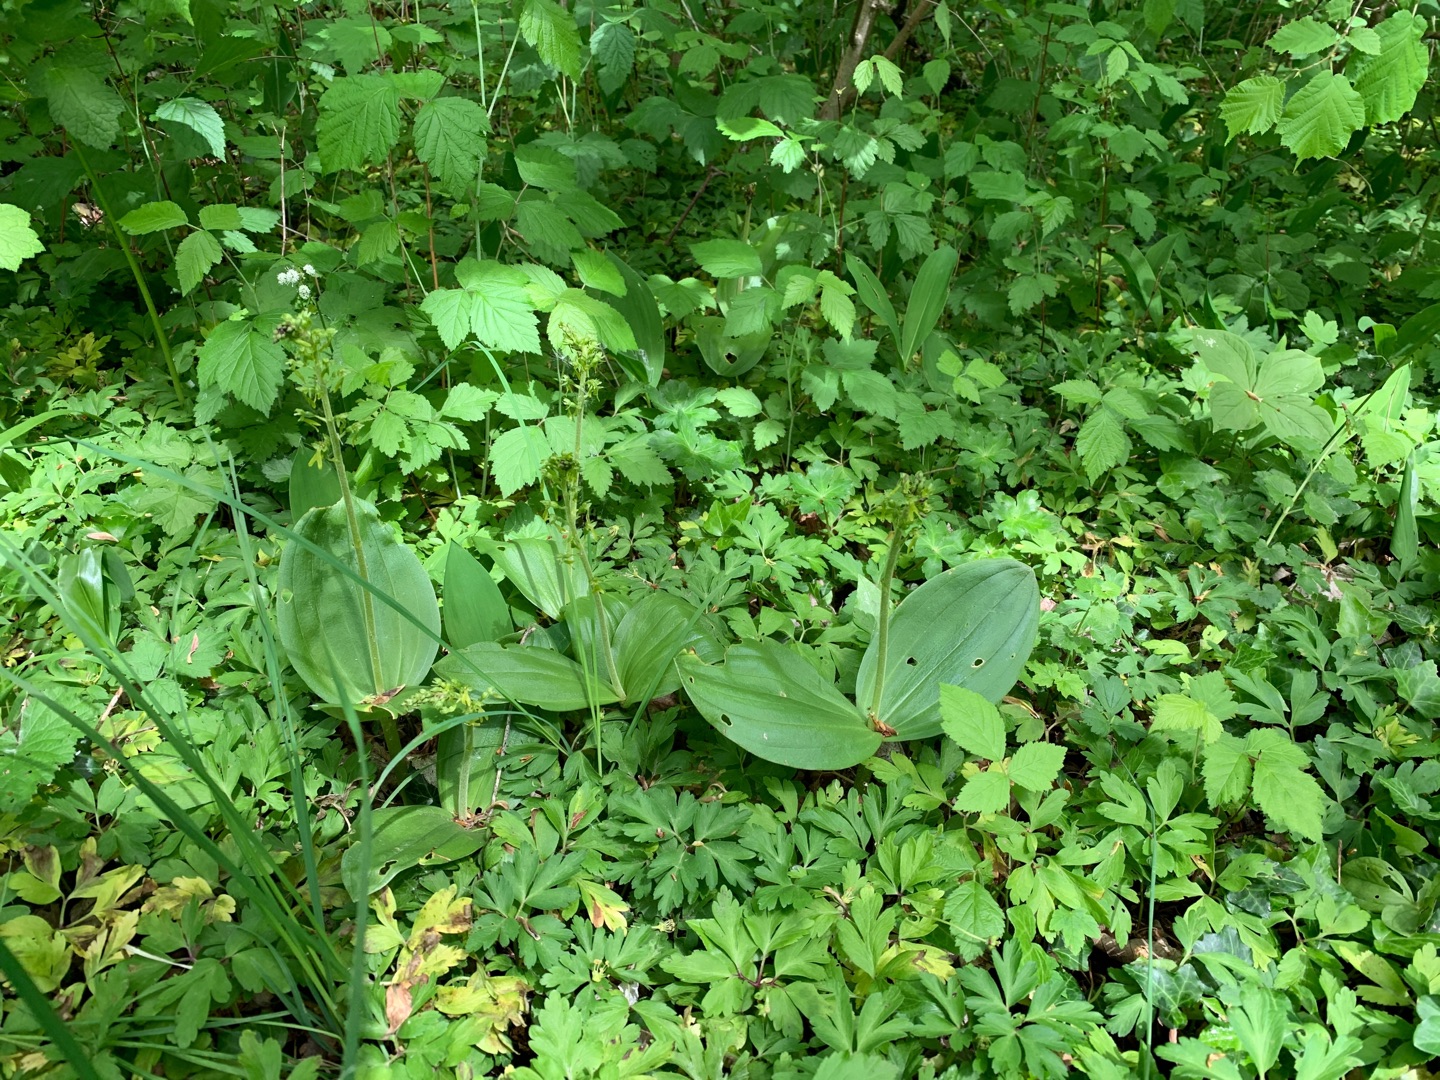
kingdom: Plantae
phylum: Tracheophyta
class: Liliopsida
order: Asparagales
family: Orchidaceae
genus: Neottia
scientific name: Neottia ovata
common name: Ægbladet fliglæbe
